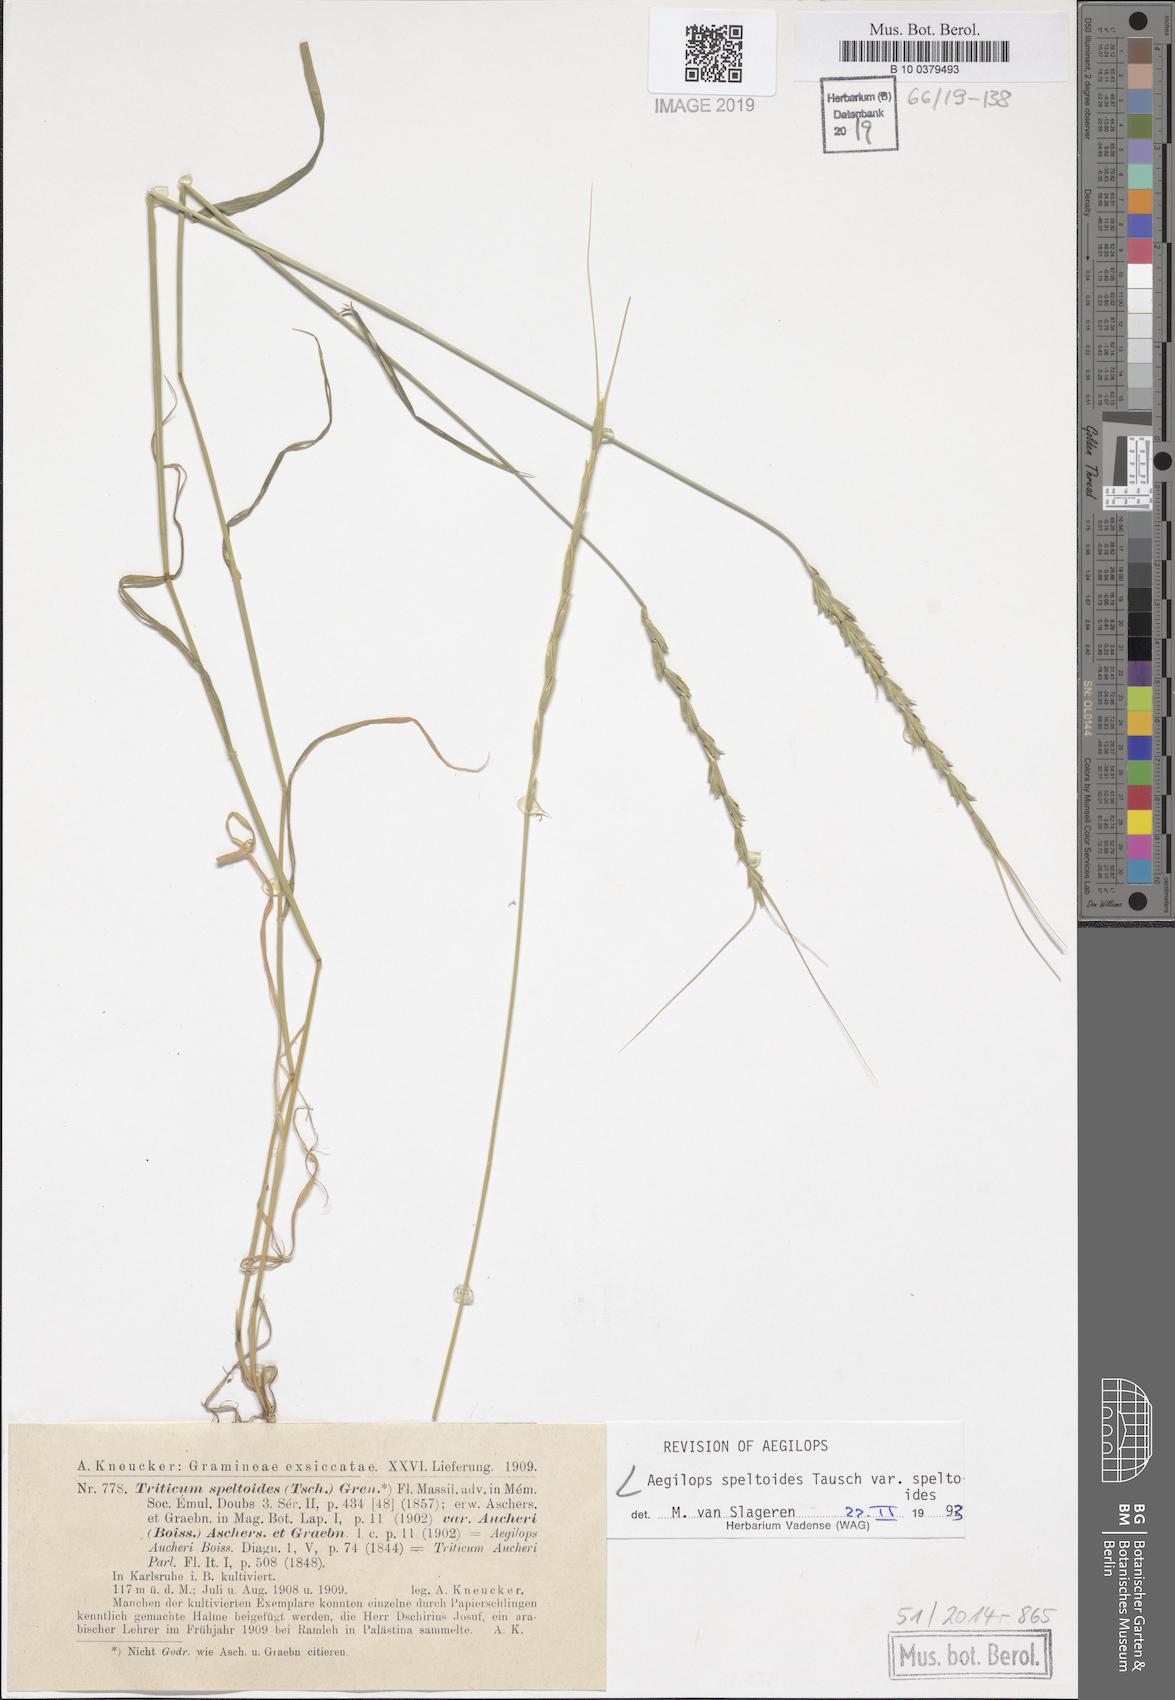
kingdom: Plantae
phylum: Tracheophyta
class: Liliopsida
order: Poales
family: Poaceae
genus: Aegilops
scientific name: Aegilops speltoides
